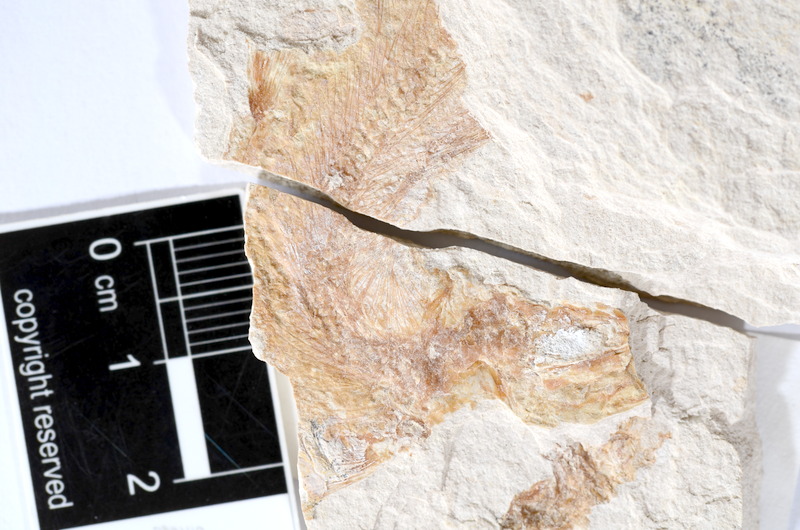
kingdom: Animalia
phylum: Chordata
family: Ascalaboidae
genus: Tharsis
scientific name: Tharsis dubius
